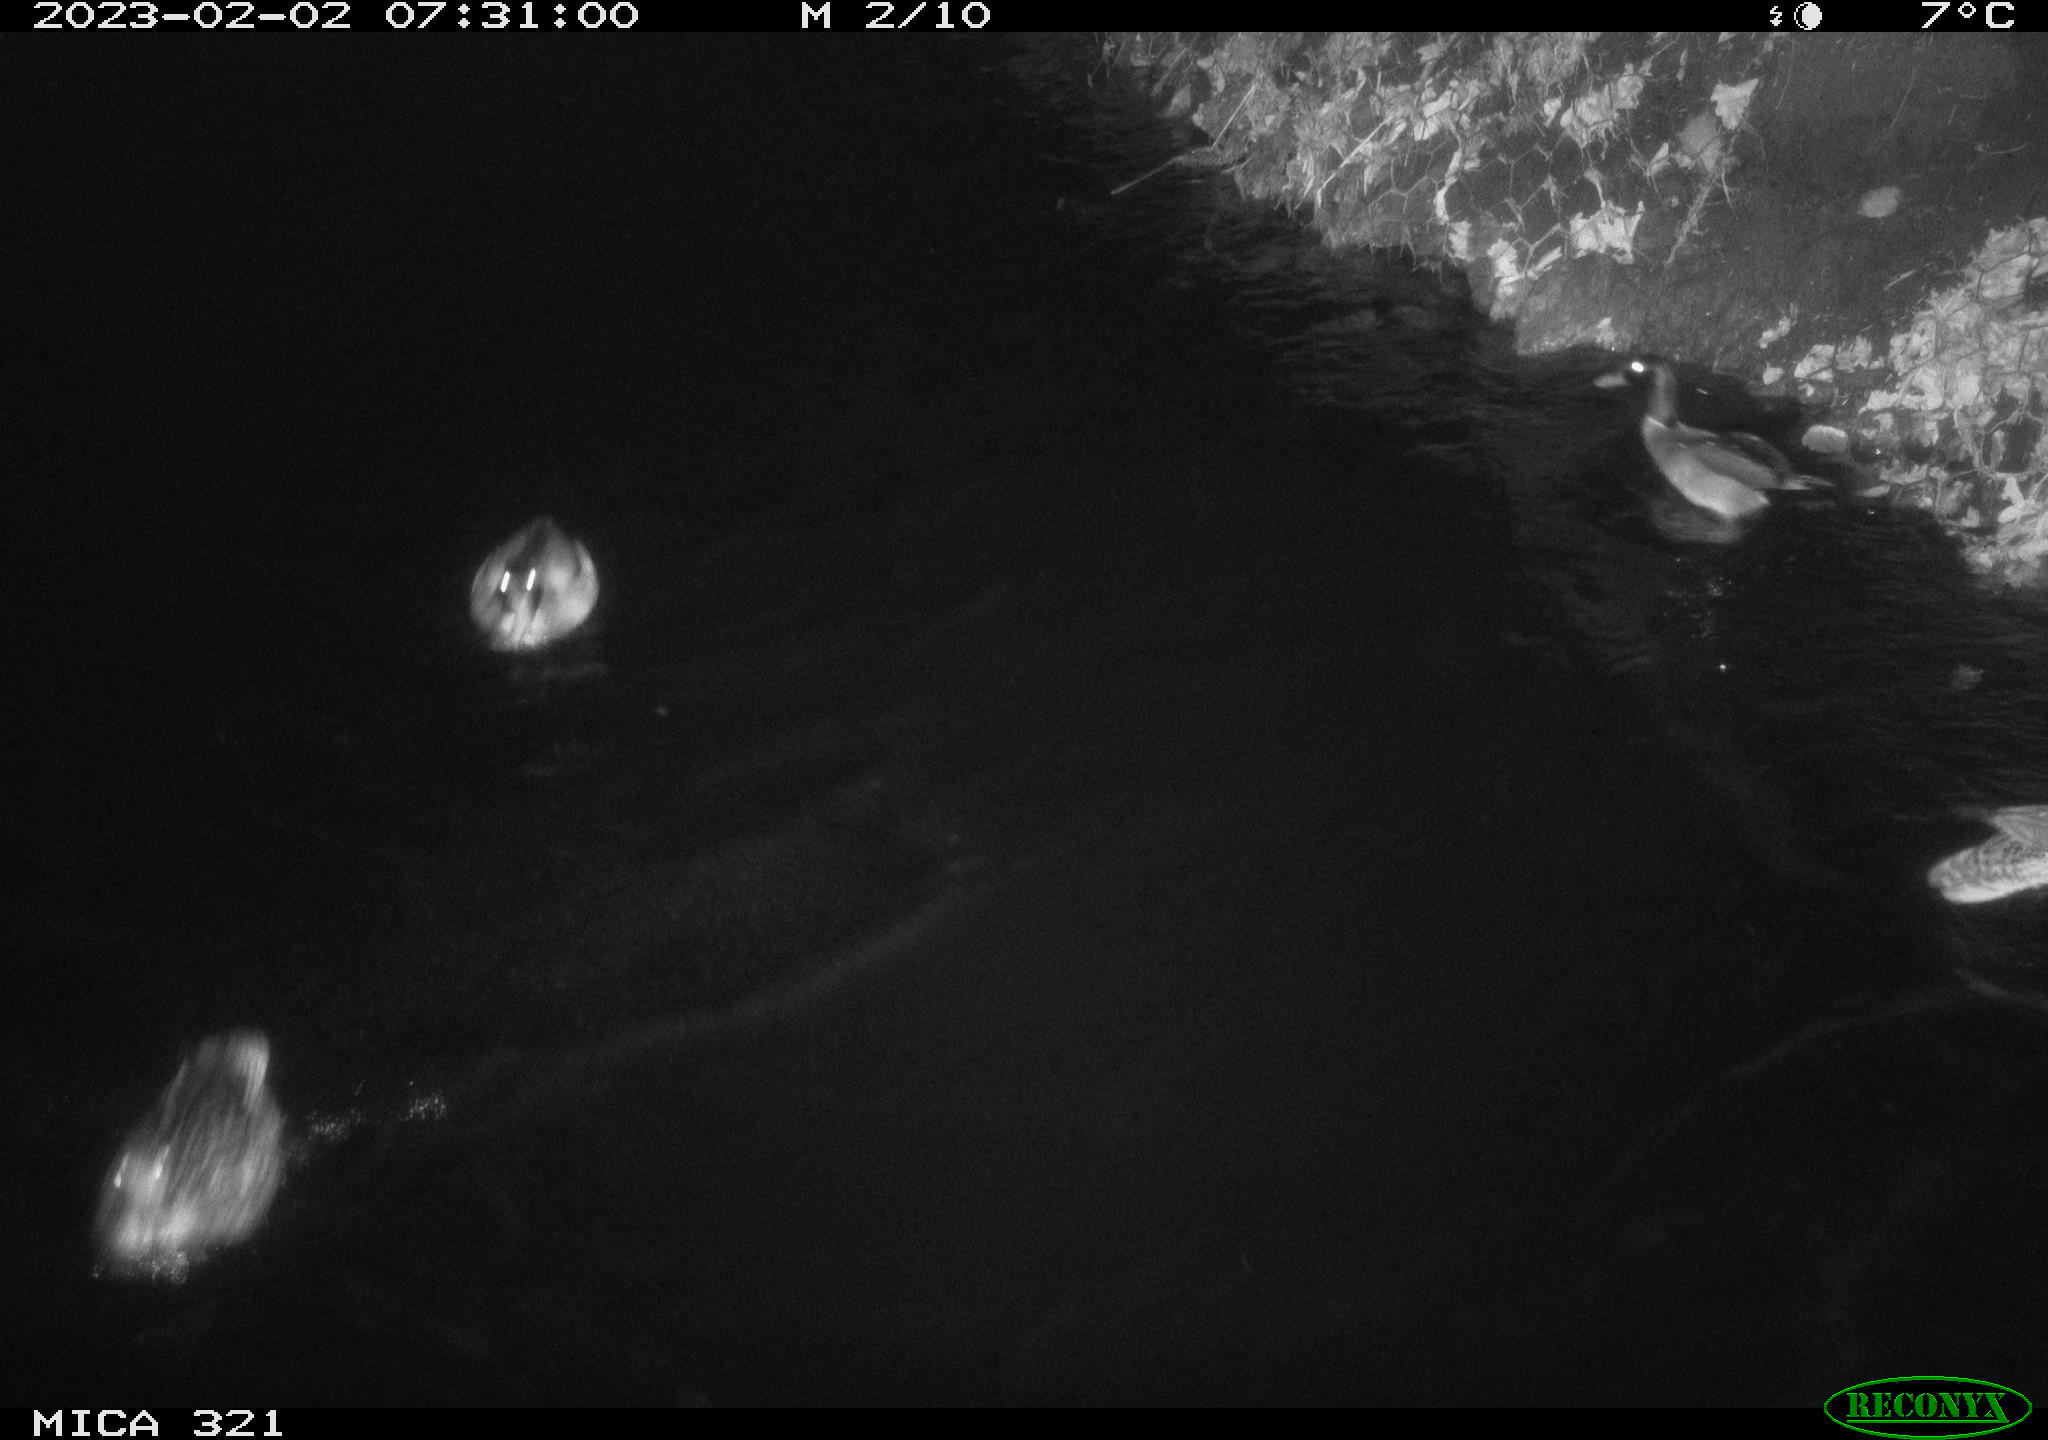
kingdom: Animalia
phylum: Chordata
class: Aves
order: Anseriformes
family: Anatidae
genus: Anas
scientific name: Anas
